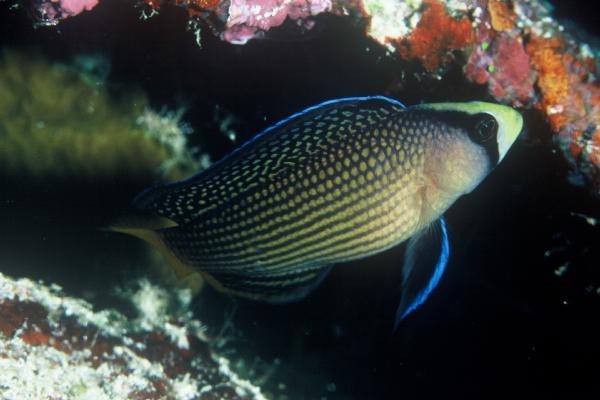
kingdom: Animalia
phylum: Chordata
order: Perciformes
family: Pseudochromidae
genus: Manonichthys
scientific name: Manonichthys splendens
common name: Splendid dottyback
